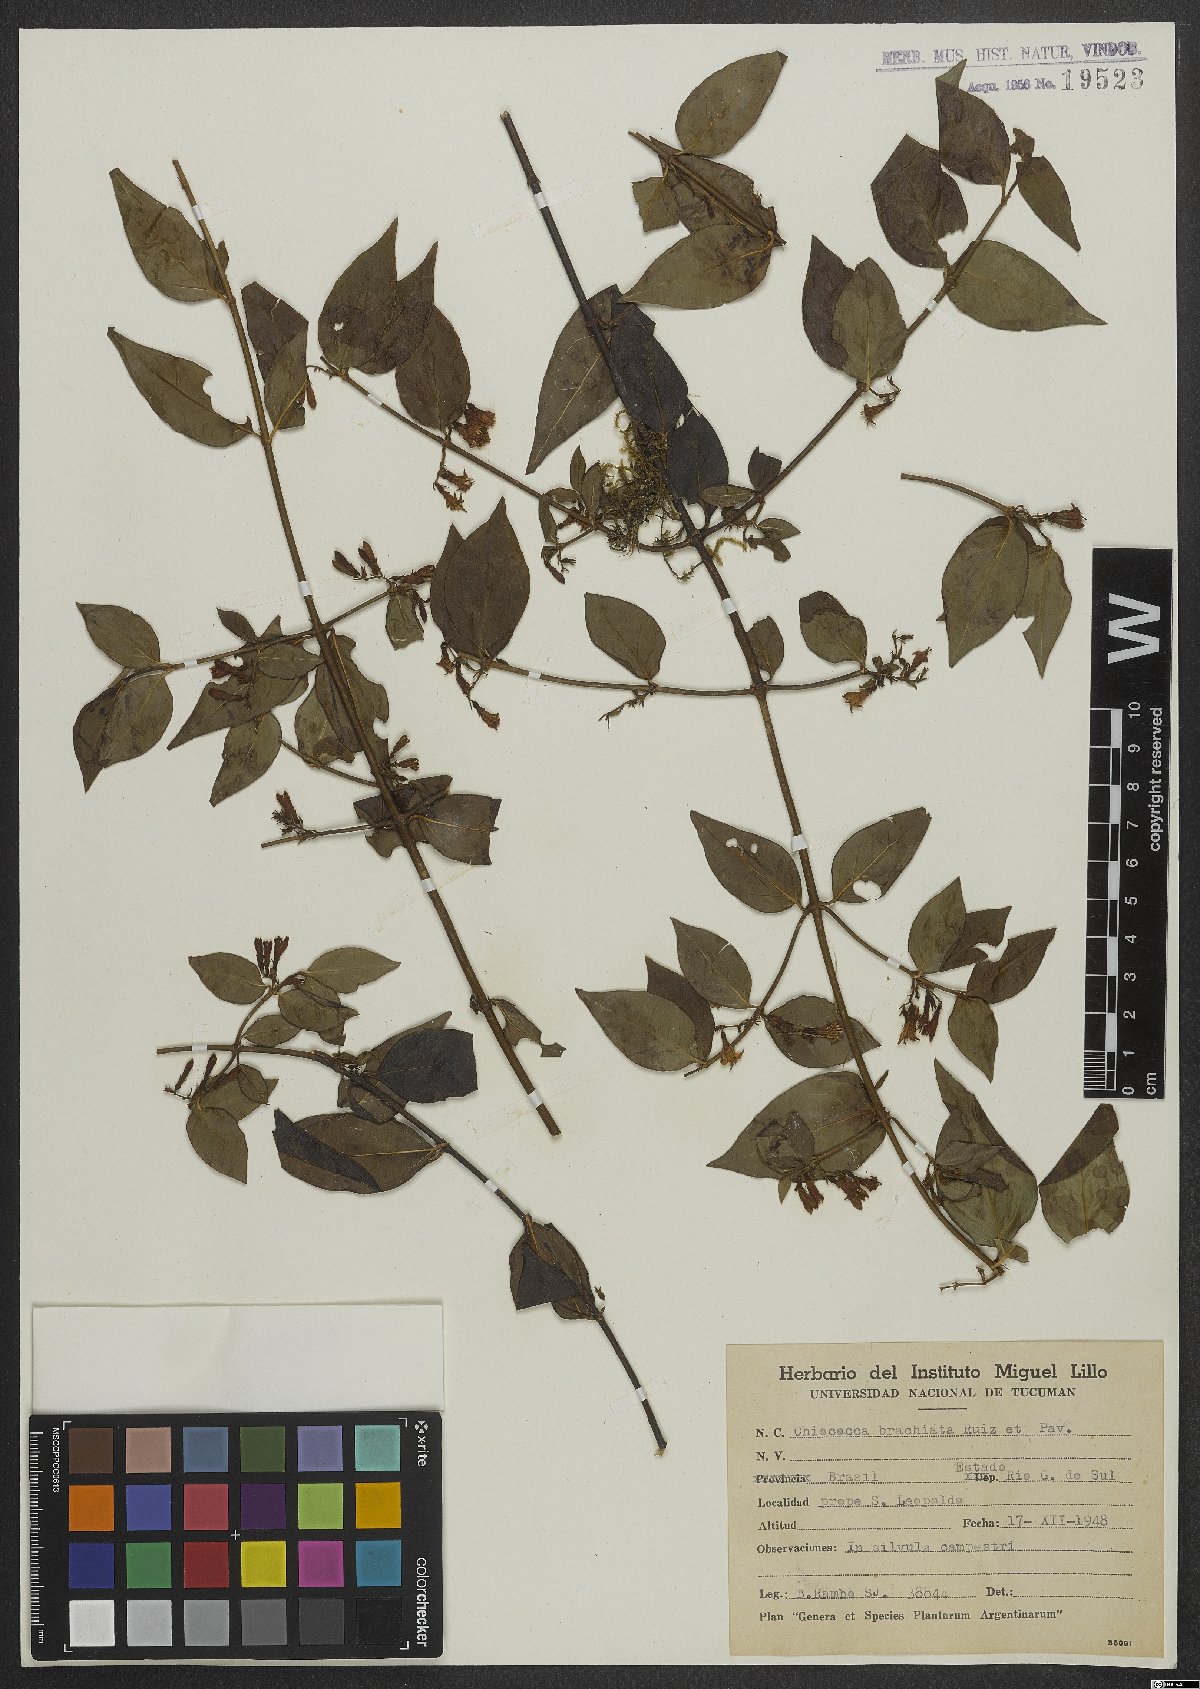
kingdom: Plantae
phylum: Tracheophyta
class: Magnoliopsida
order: Gentianales
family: Rubiaceae
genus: Chiococca
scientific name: Chiococca alba
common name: Snowberry
